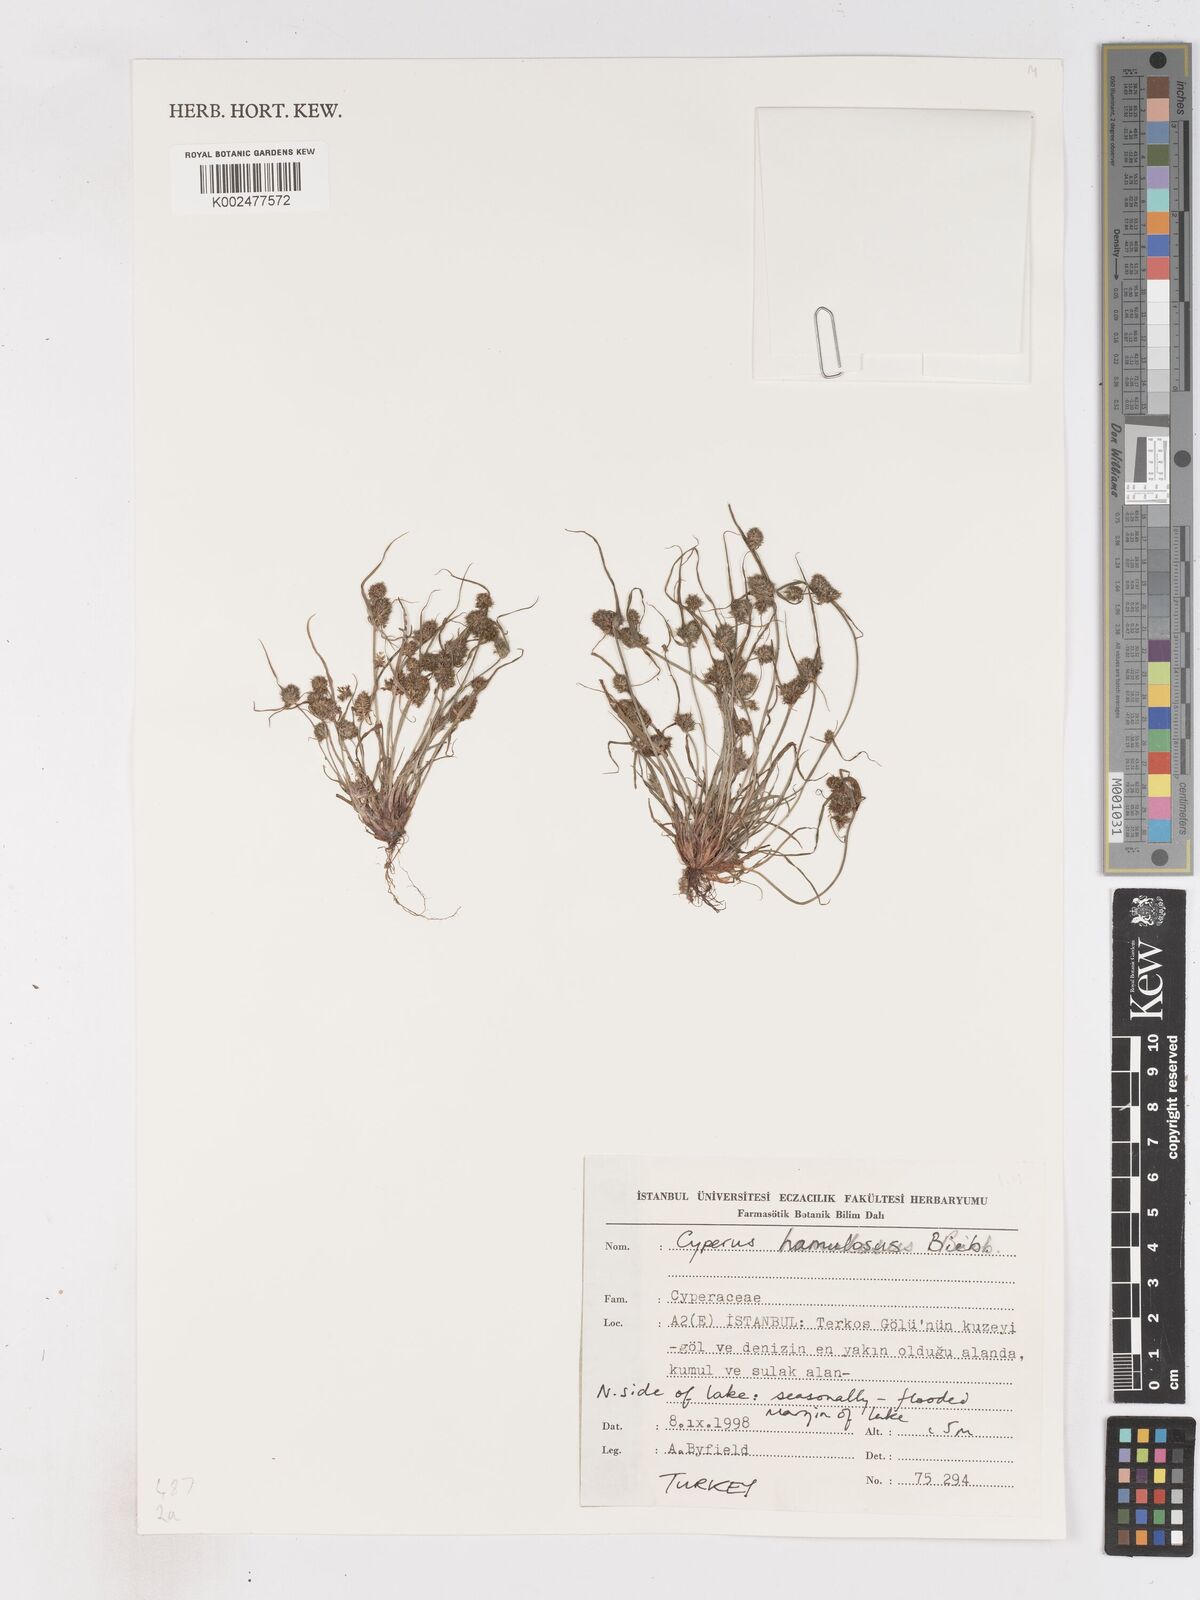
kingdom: Plantae
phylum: Tracheophyta
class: Liliopsida
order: Poales
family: Cyperaceae
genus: Cyperus
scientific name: Cyperus hamulosus
